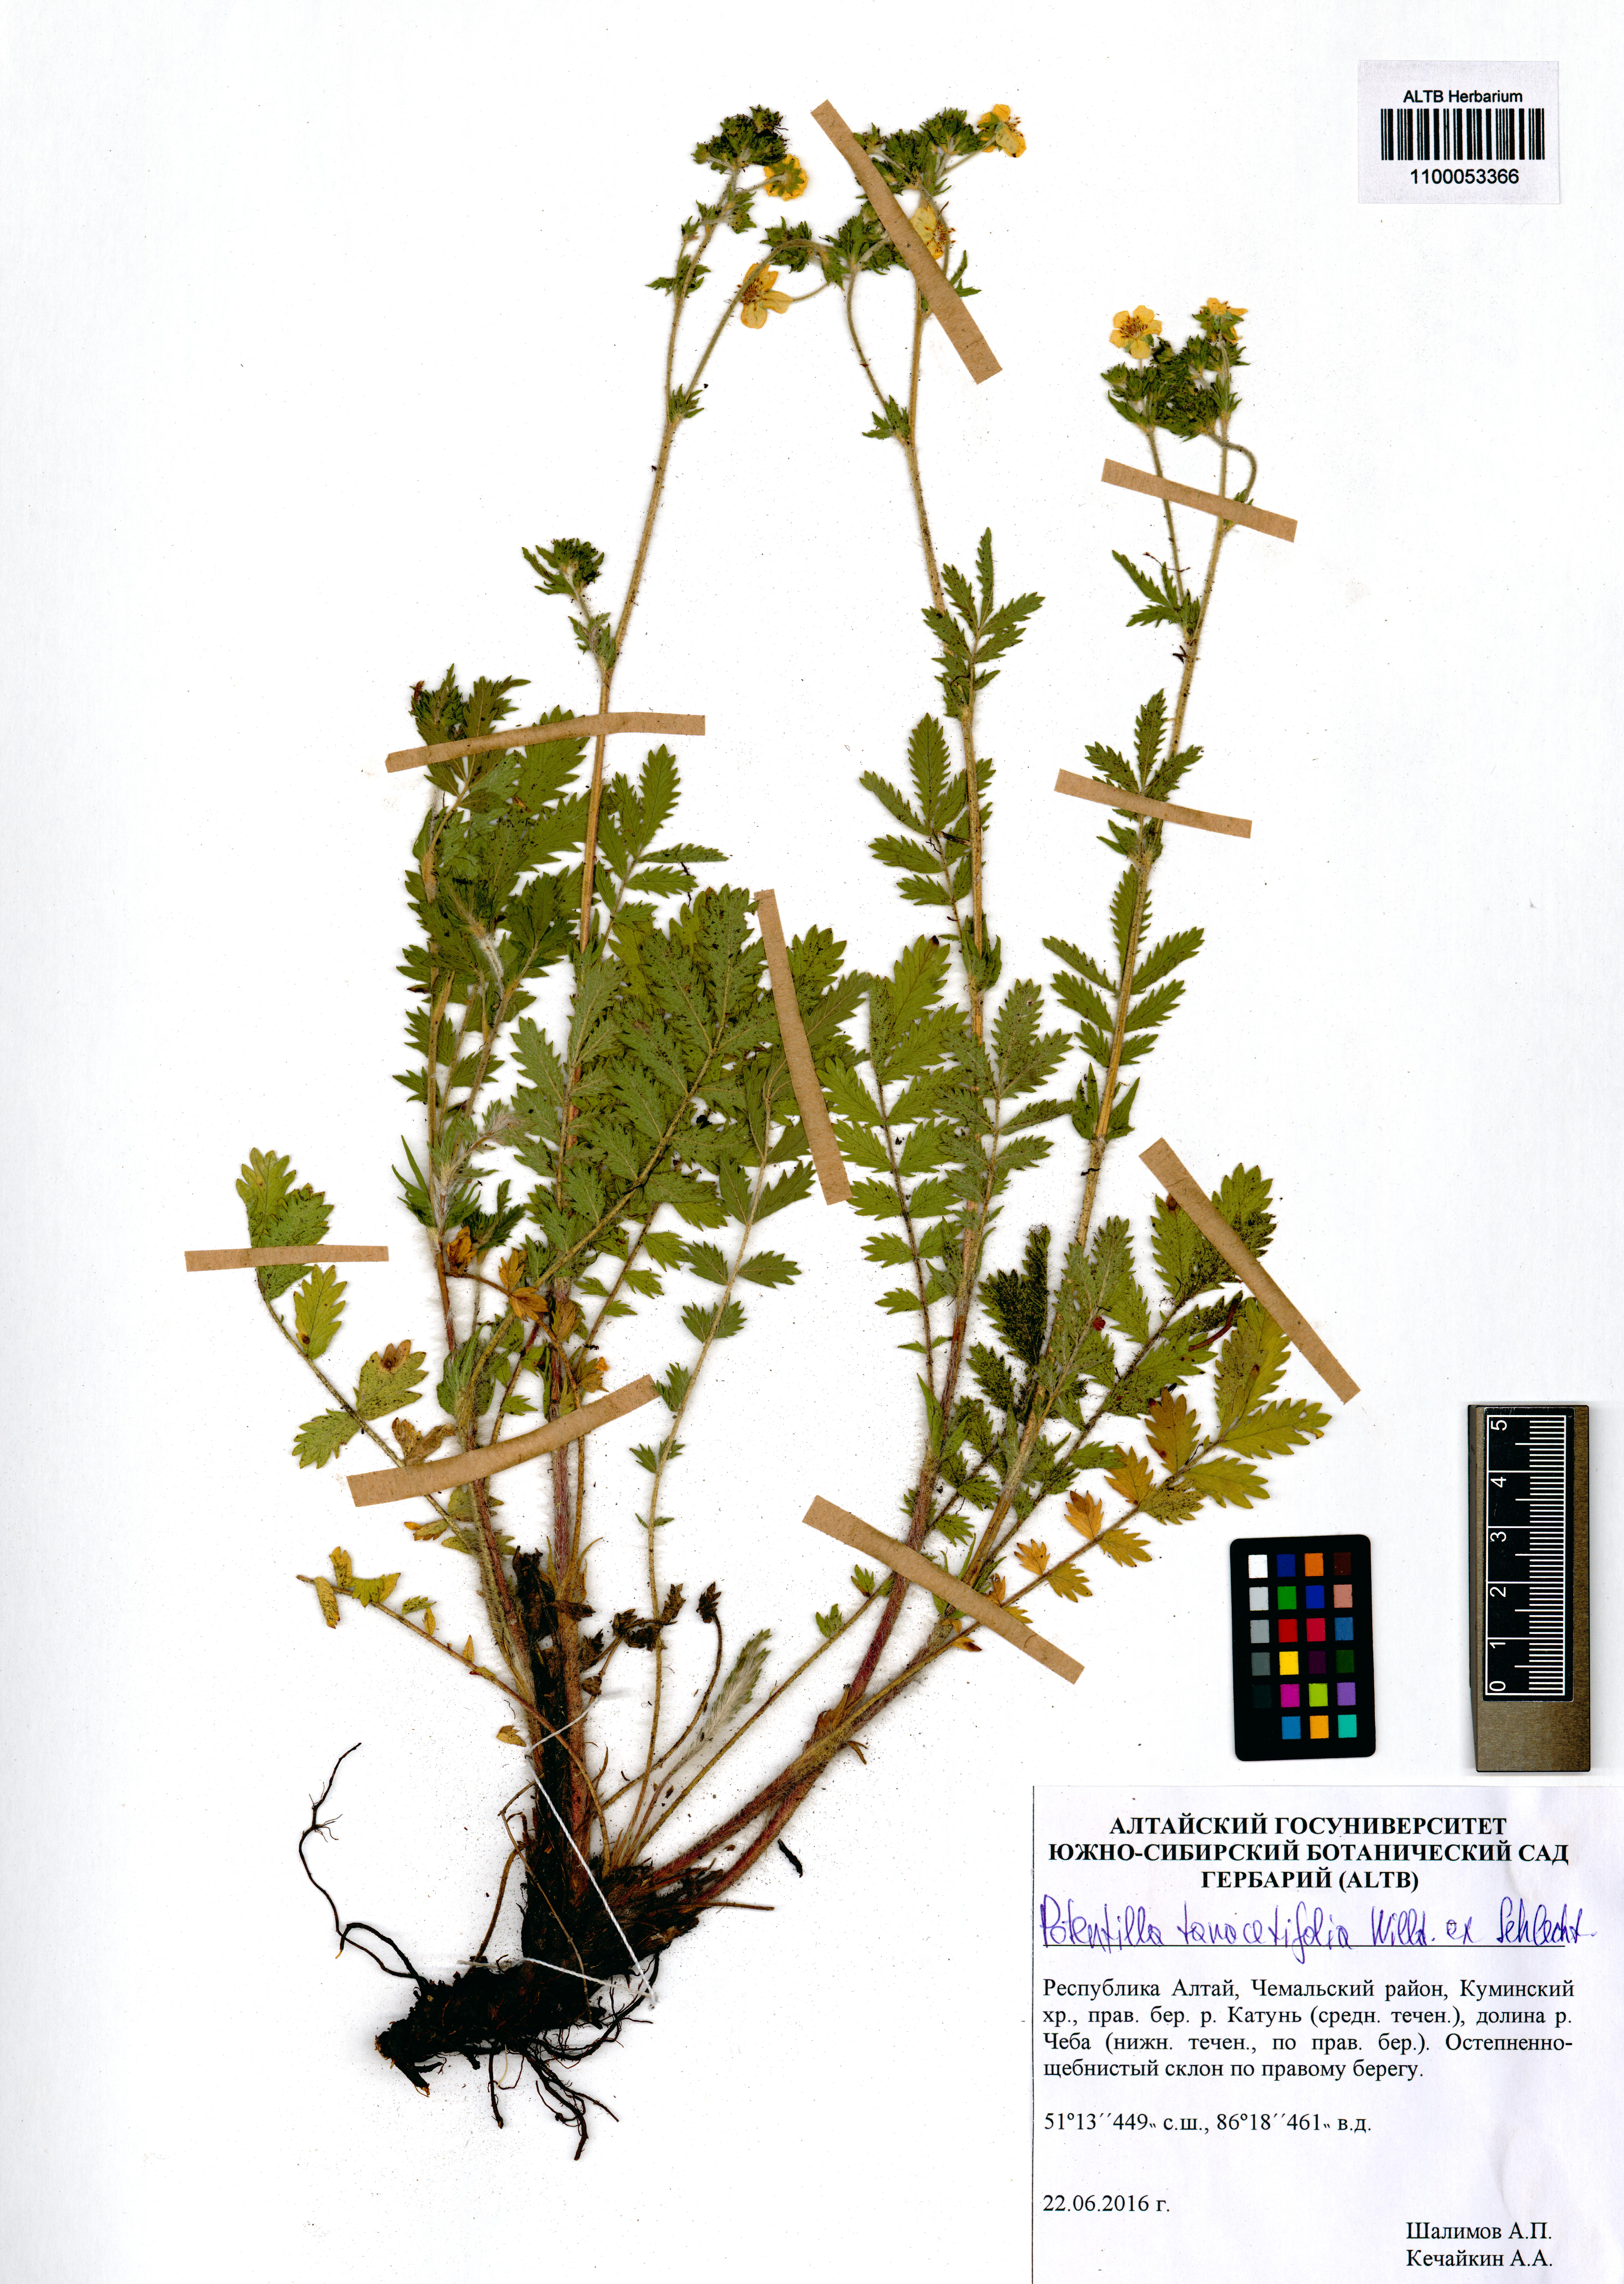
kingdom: Plantae
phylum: Tracheophyta
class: Magnoliopsida
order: Rosales
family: Rosaceae
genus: Potentilla
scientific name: Potentilla tanacetifolia
